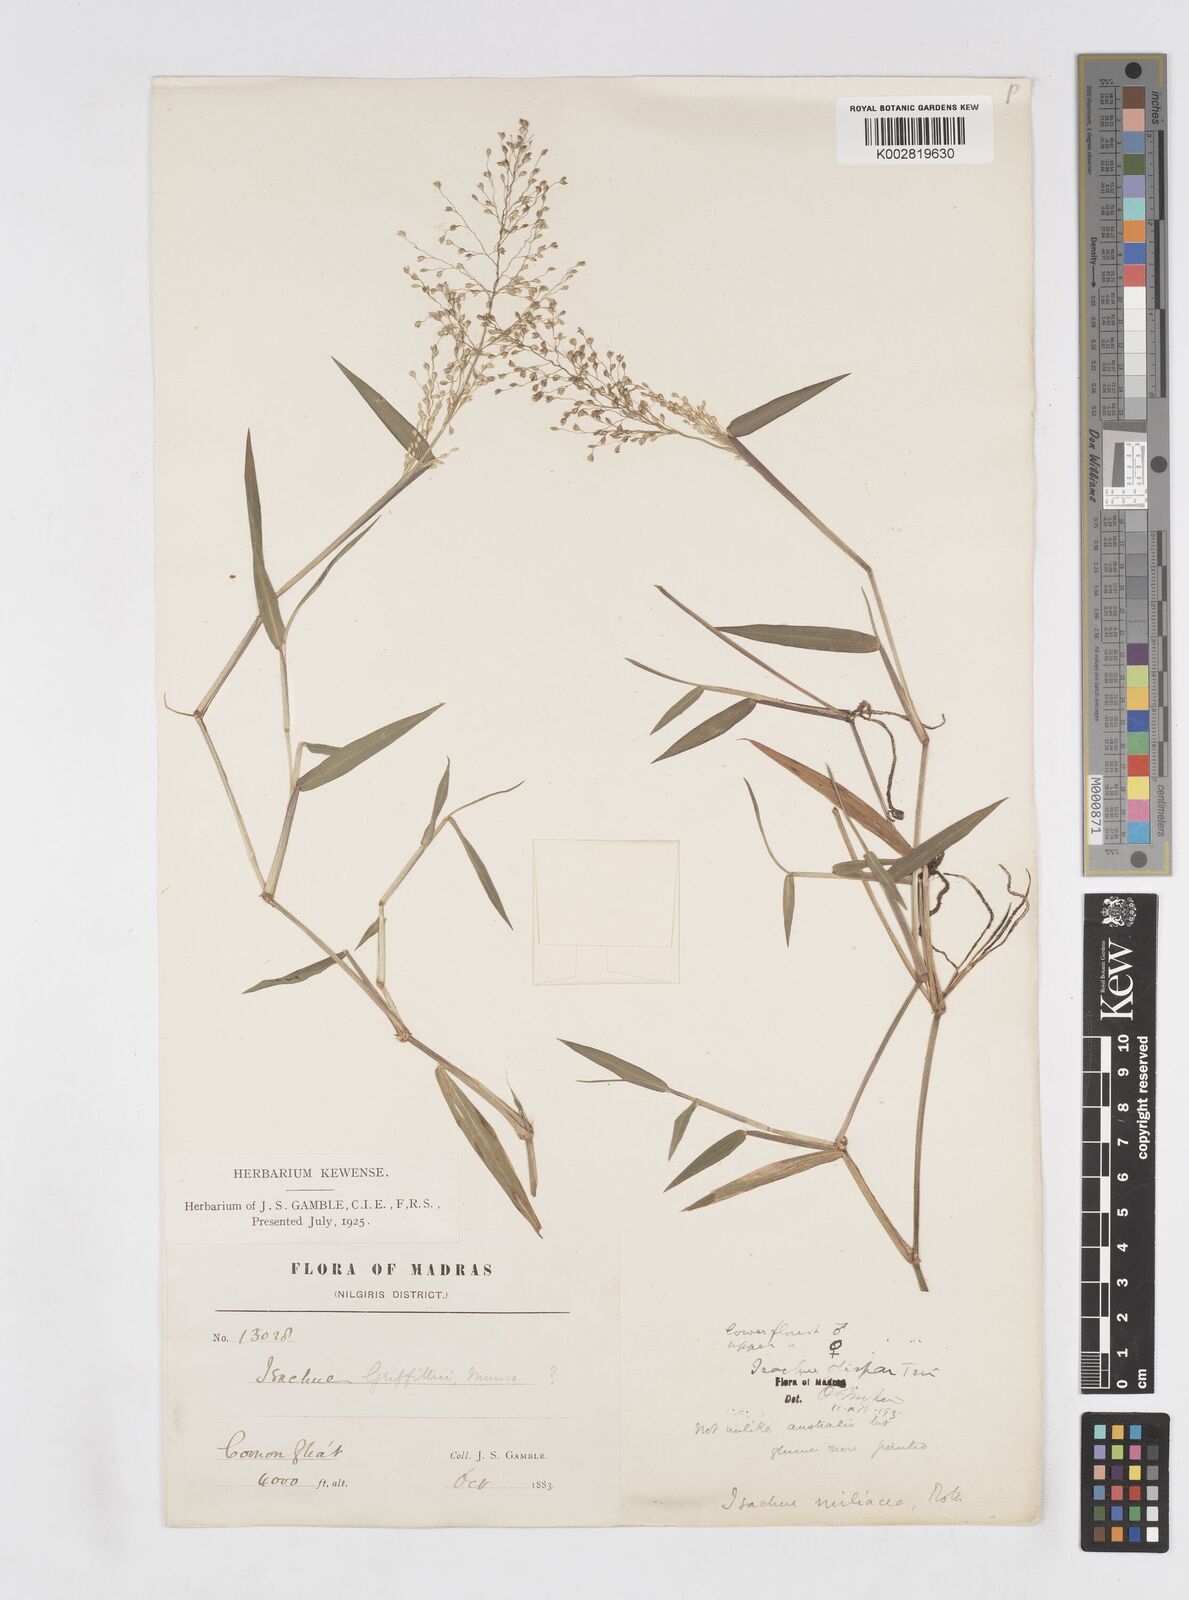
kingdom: Plantae
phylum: Tracheophyta
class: Liliopsida
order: Poales
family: Poaceae
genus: Isachne
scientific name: Isachne globosa
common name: Swamp millet
